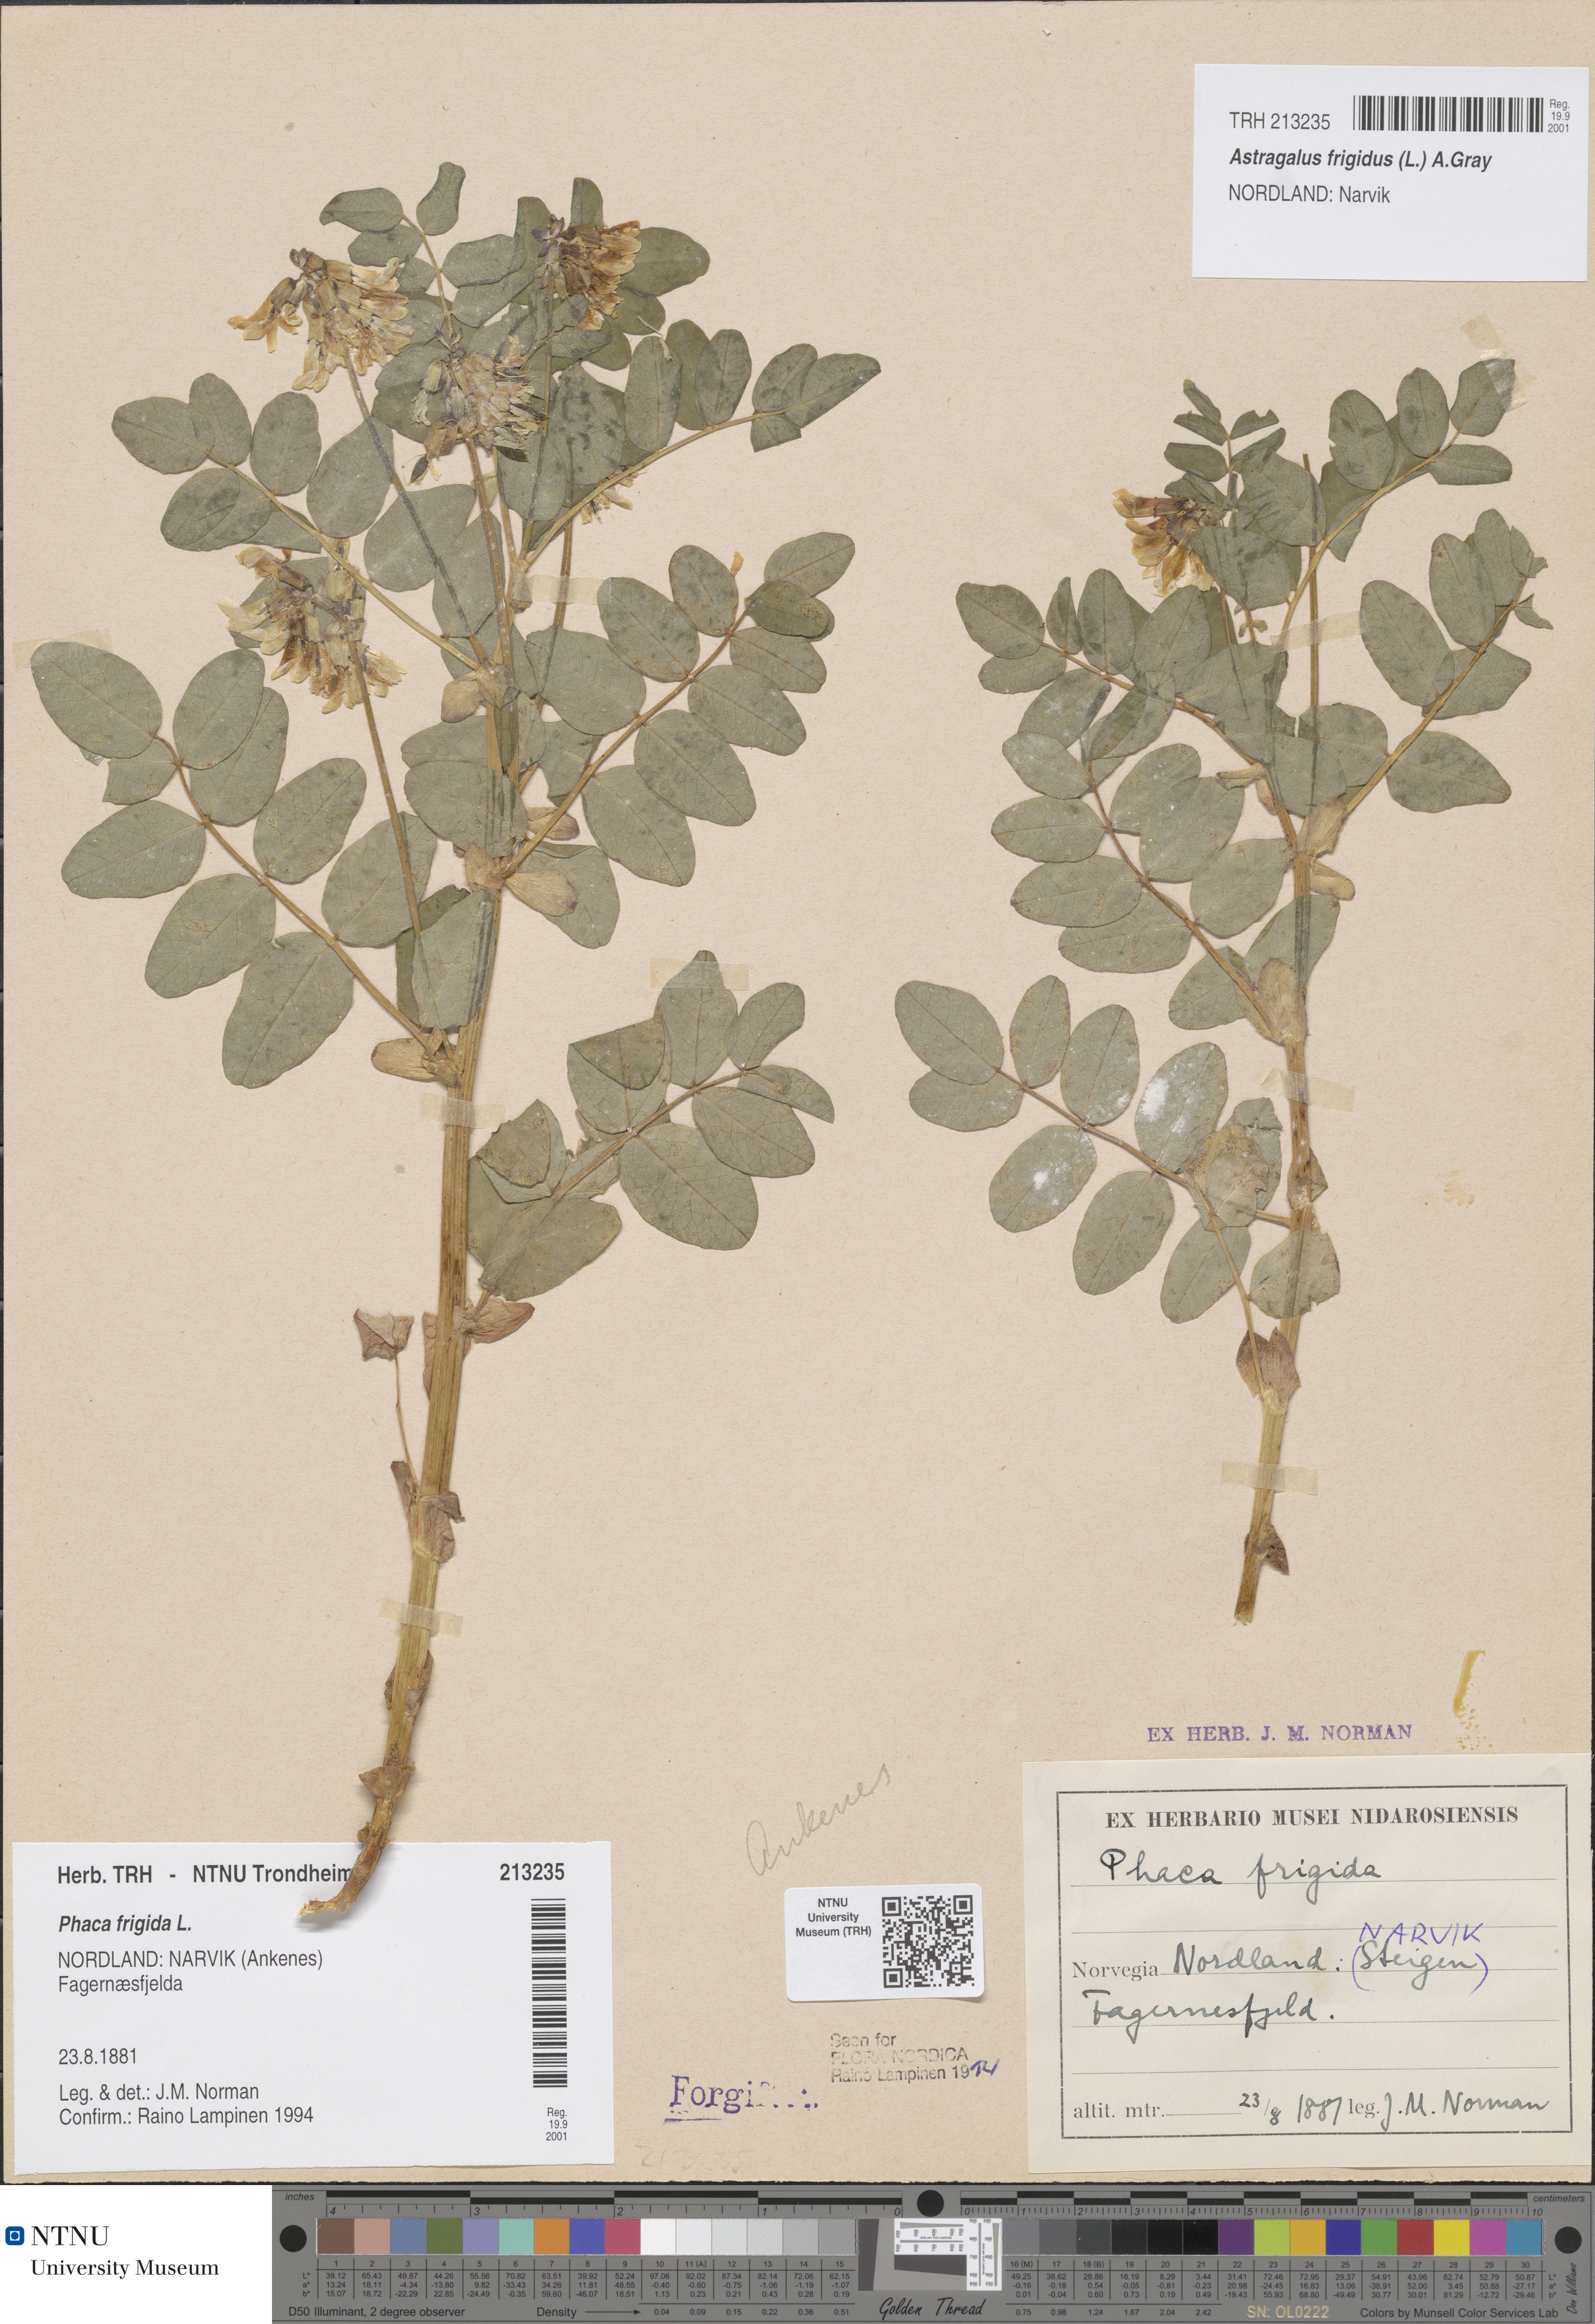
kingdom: Plantae
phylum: Tracheophyta
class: Magnoliopsida
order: Fabales
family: Fabaceae
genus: Astragalus
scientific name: Astragalus frigidus
